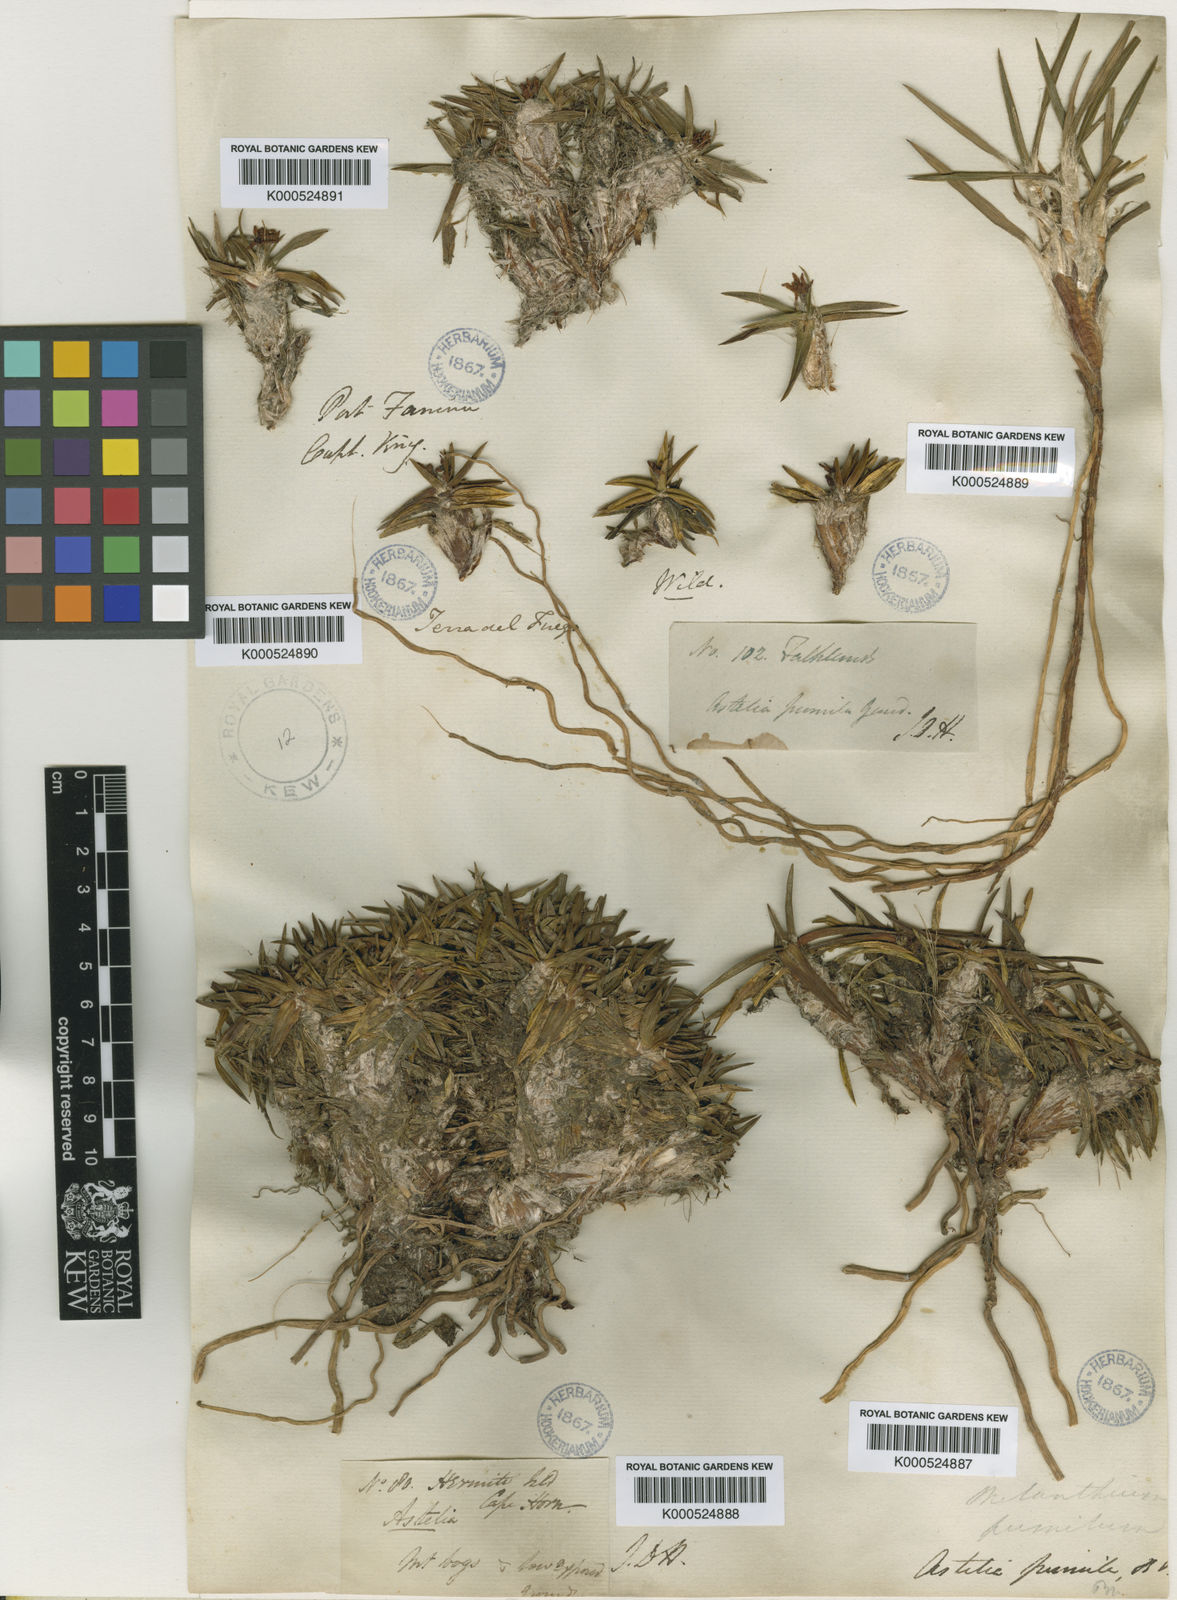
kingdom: Plantae
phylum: Tracheophyta
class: Liliopsida
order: Asparagales
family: Asteliaceae
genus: Astelia
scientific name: Astelia pumila
